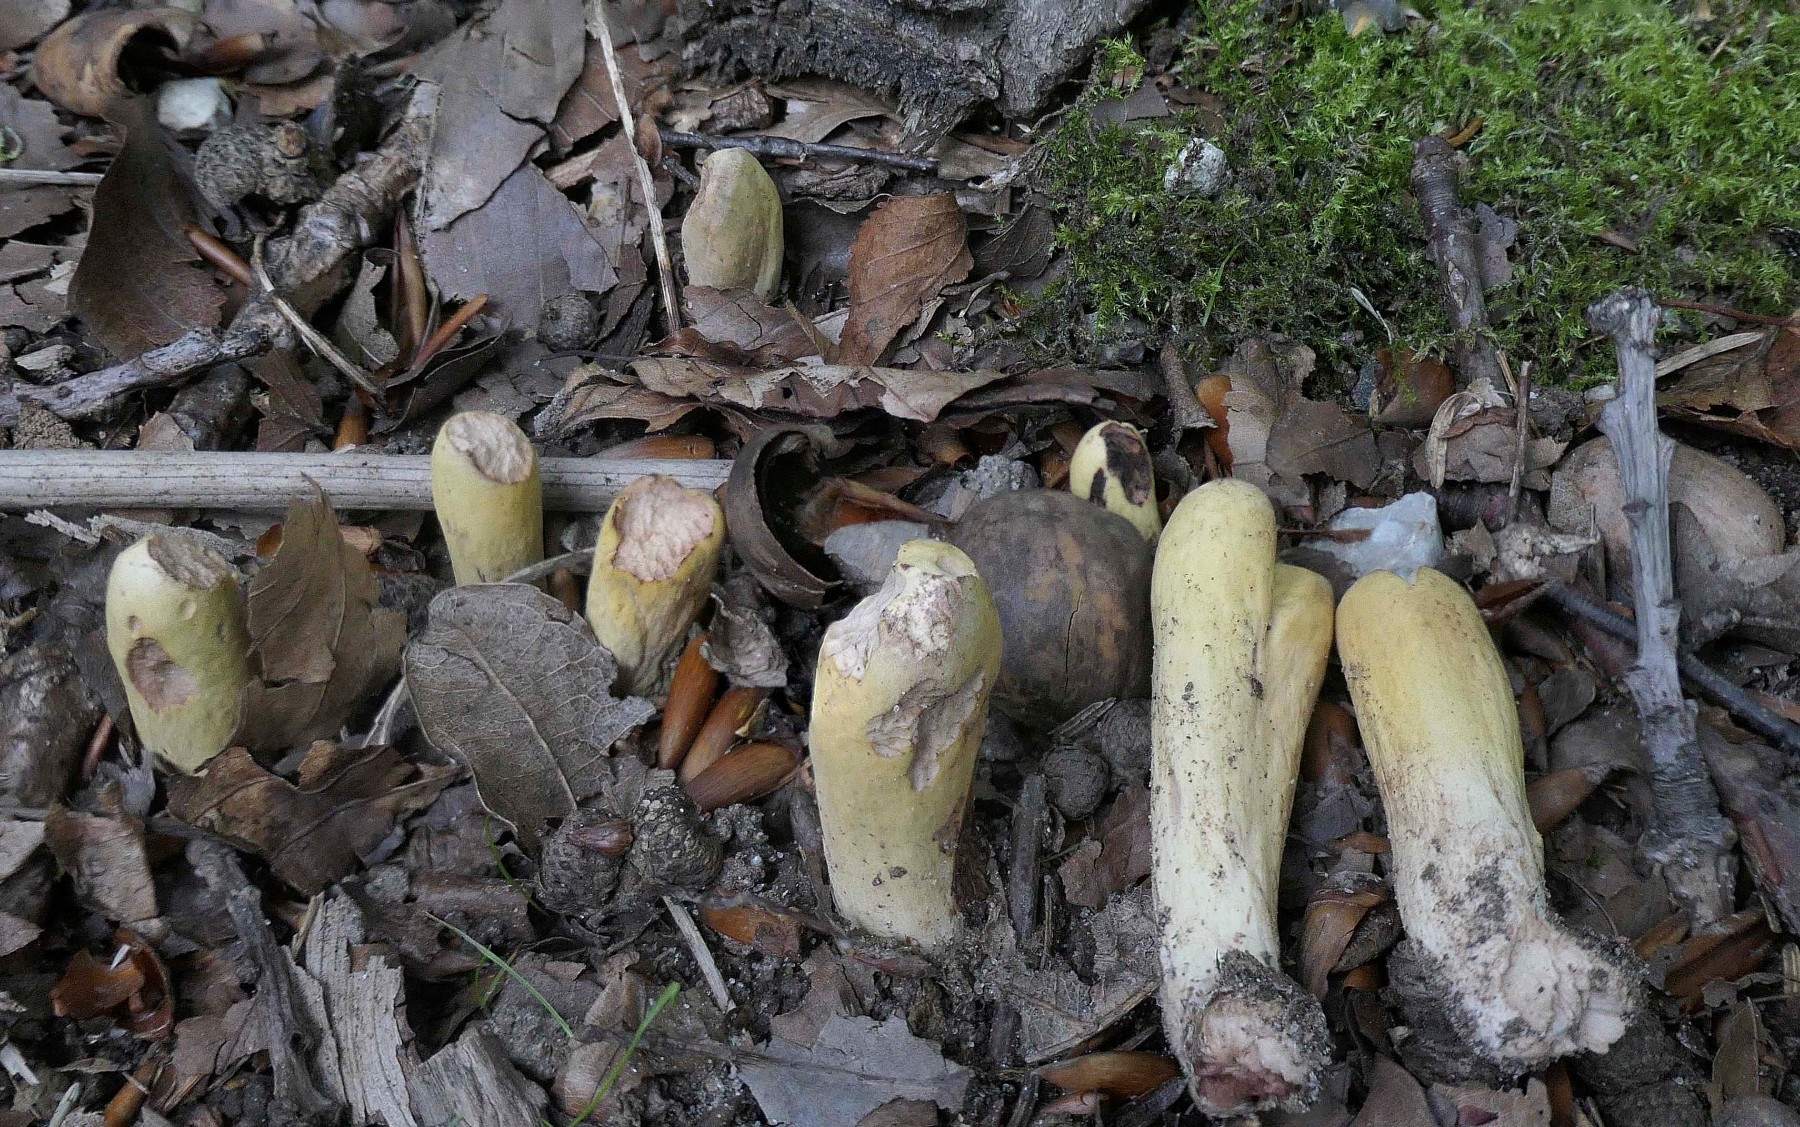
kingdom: Fungi
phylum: Basidiomycota
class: Agaricomycetes
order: Gomphales
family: Clavariadelphaceae
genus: Clavariadelphus
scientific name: Clavariadelphus pistillaris
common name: herkules-kæmpekølle
